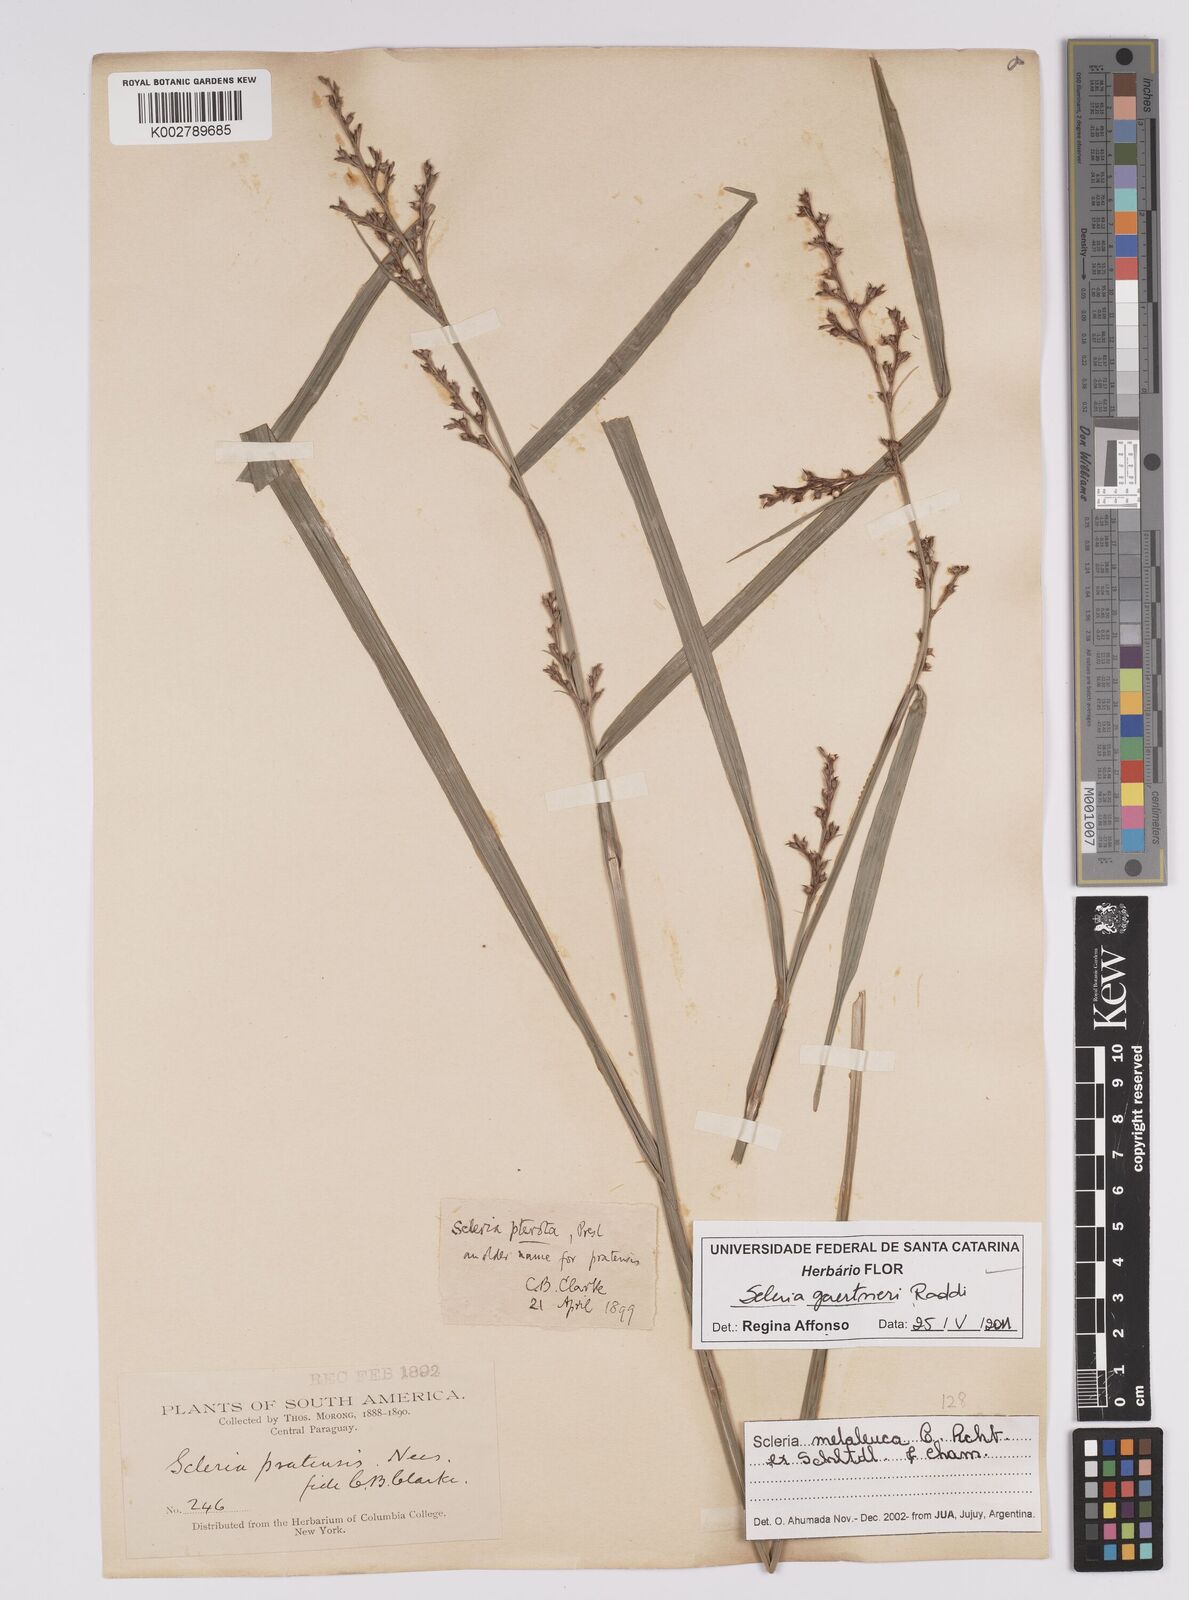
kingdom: Plantae
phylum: Tracheophyta
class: Liliopsida
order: Poales
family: Cyperaceae
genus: Scleria
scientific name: Scleria gaertneri
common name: Cortadera blanca
